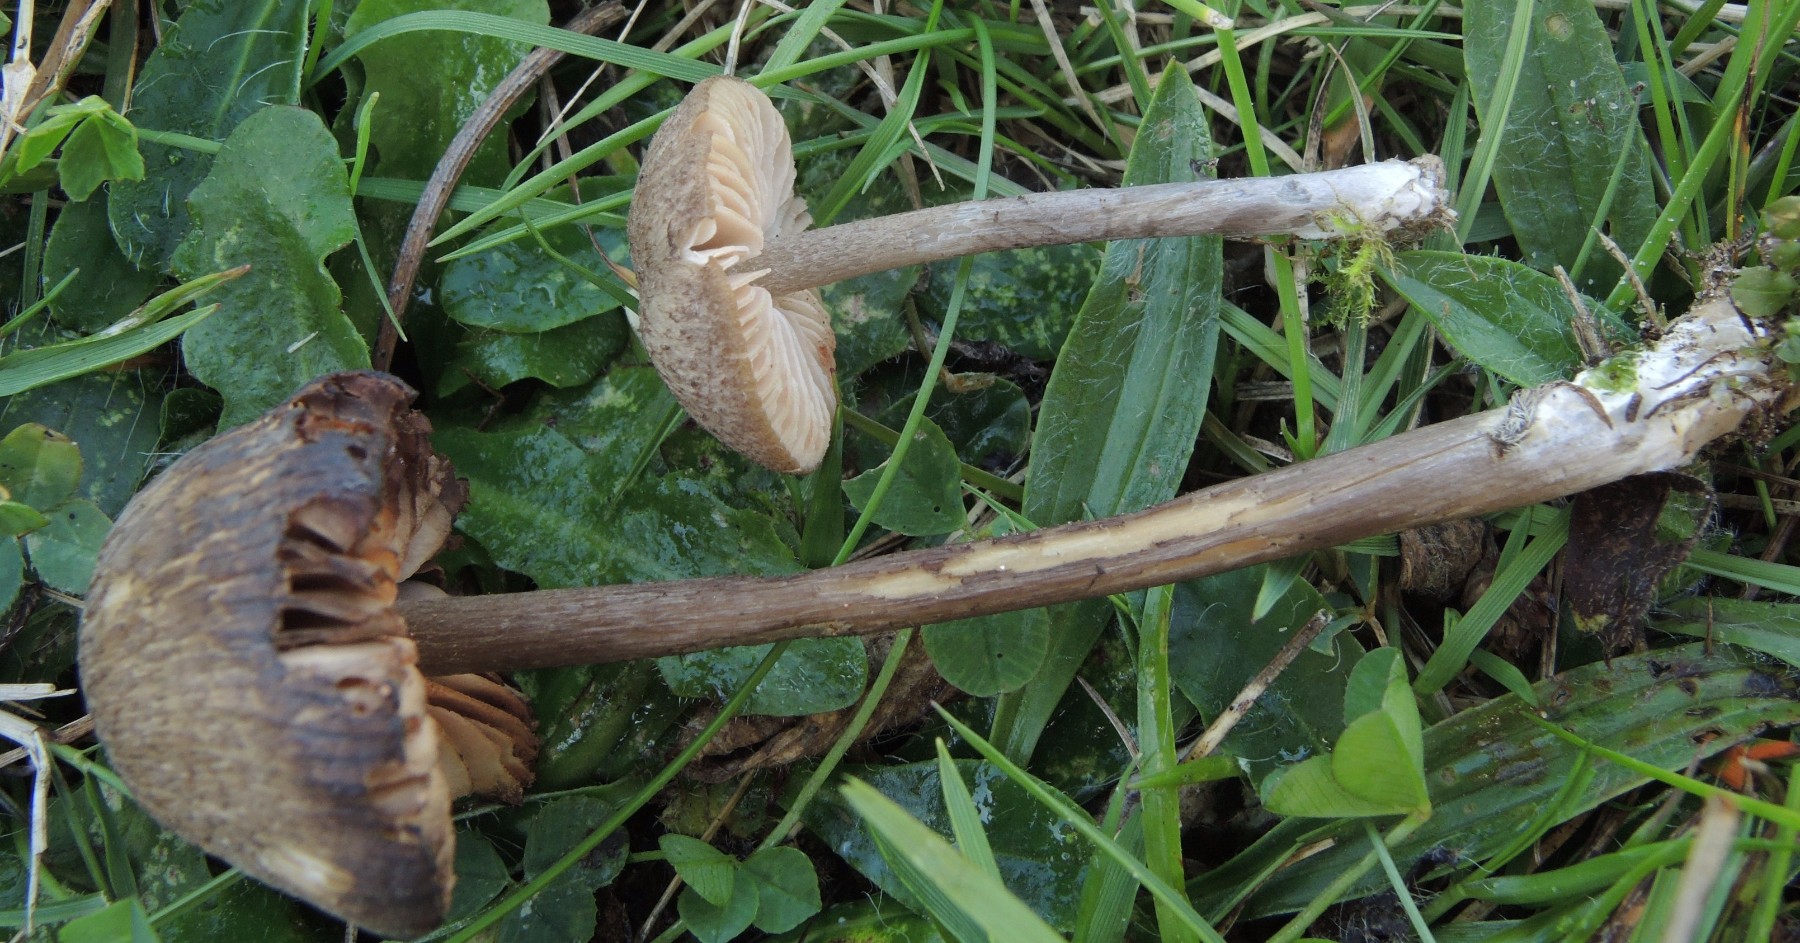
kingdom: Fungi
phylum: Basidiomycota
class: Agaricomycetes
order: Agaricales
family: Entolomataceae
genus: Entoloma
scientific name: Entoloma griseocyaneum
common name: gråblå rødblad
